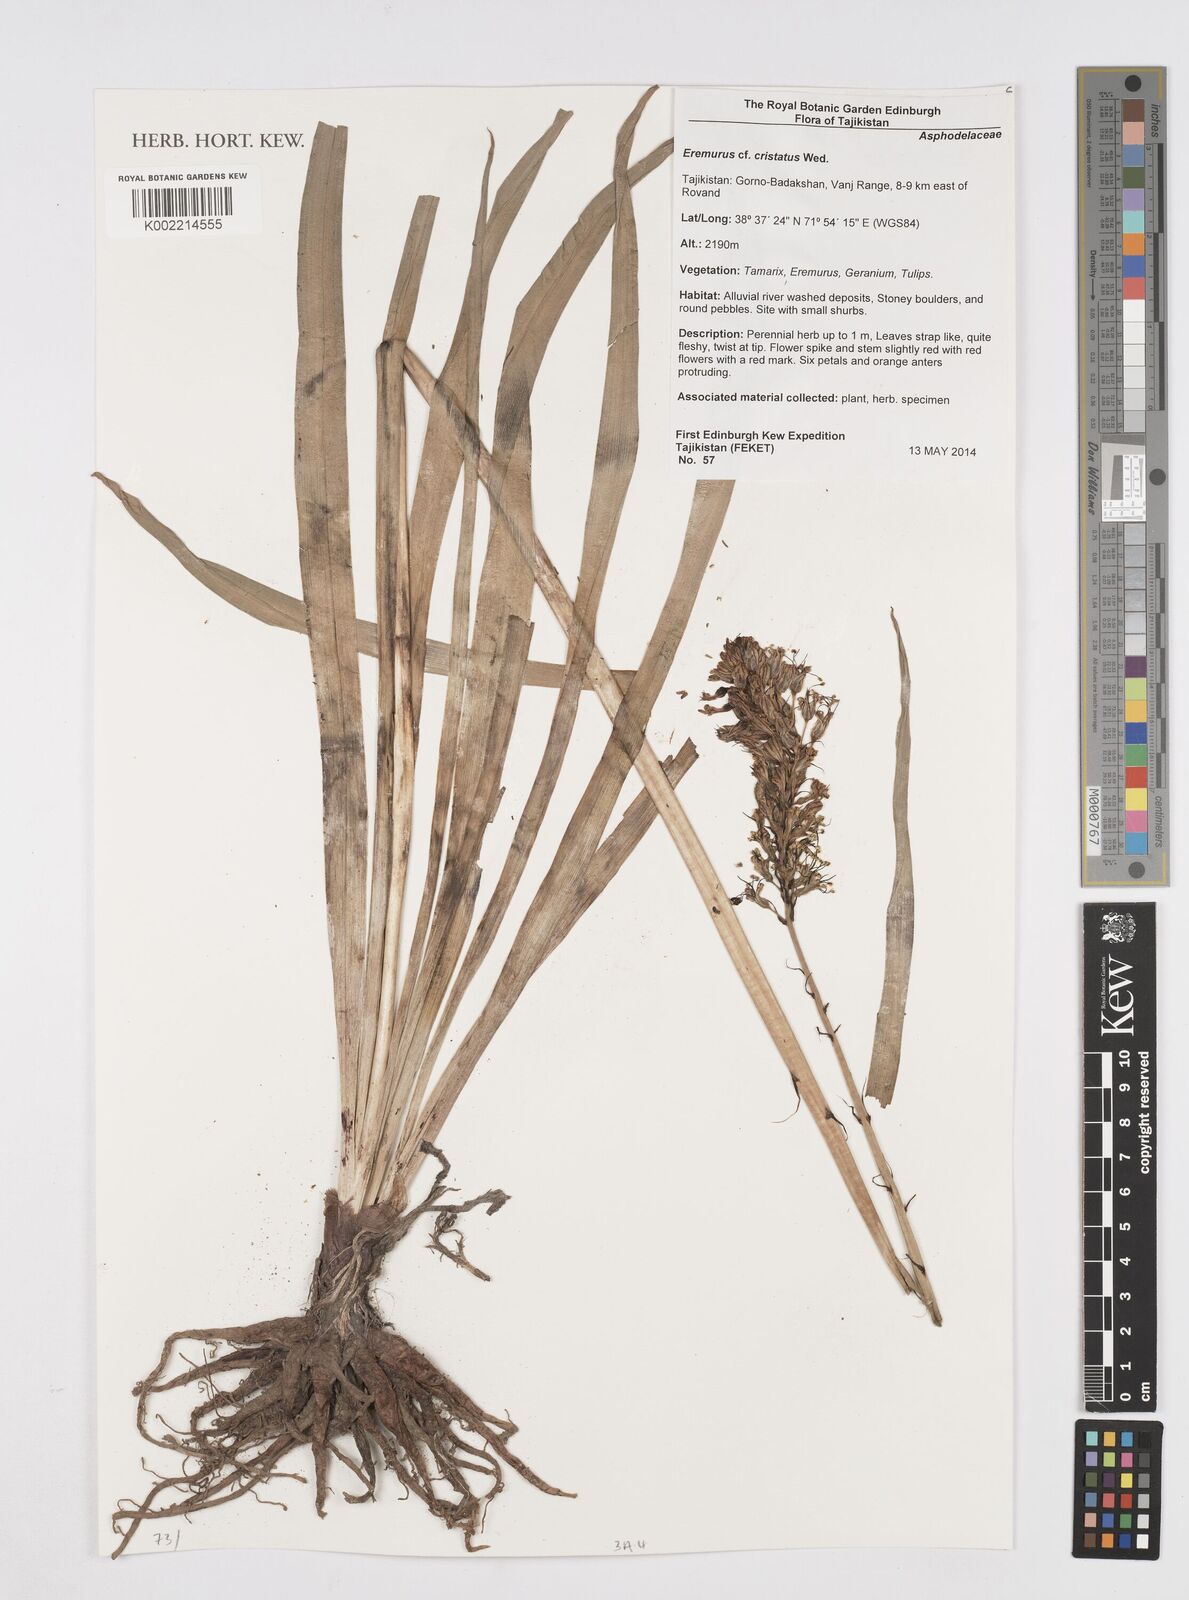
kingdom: Plantae
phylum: Tracheophyta
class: Liliopsida
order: Asparagales
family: Asphodelaceae
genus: Eremurus
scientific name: Eremurus cristatus
